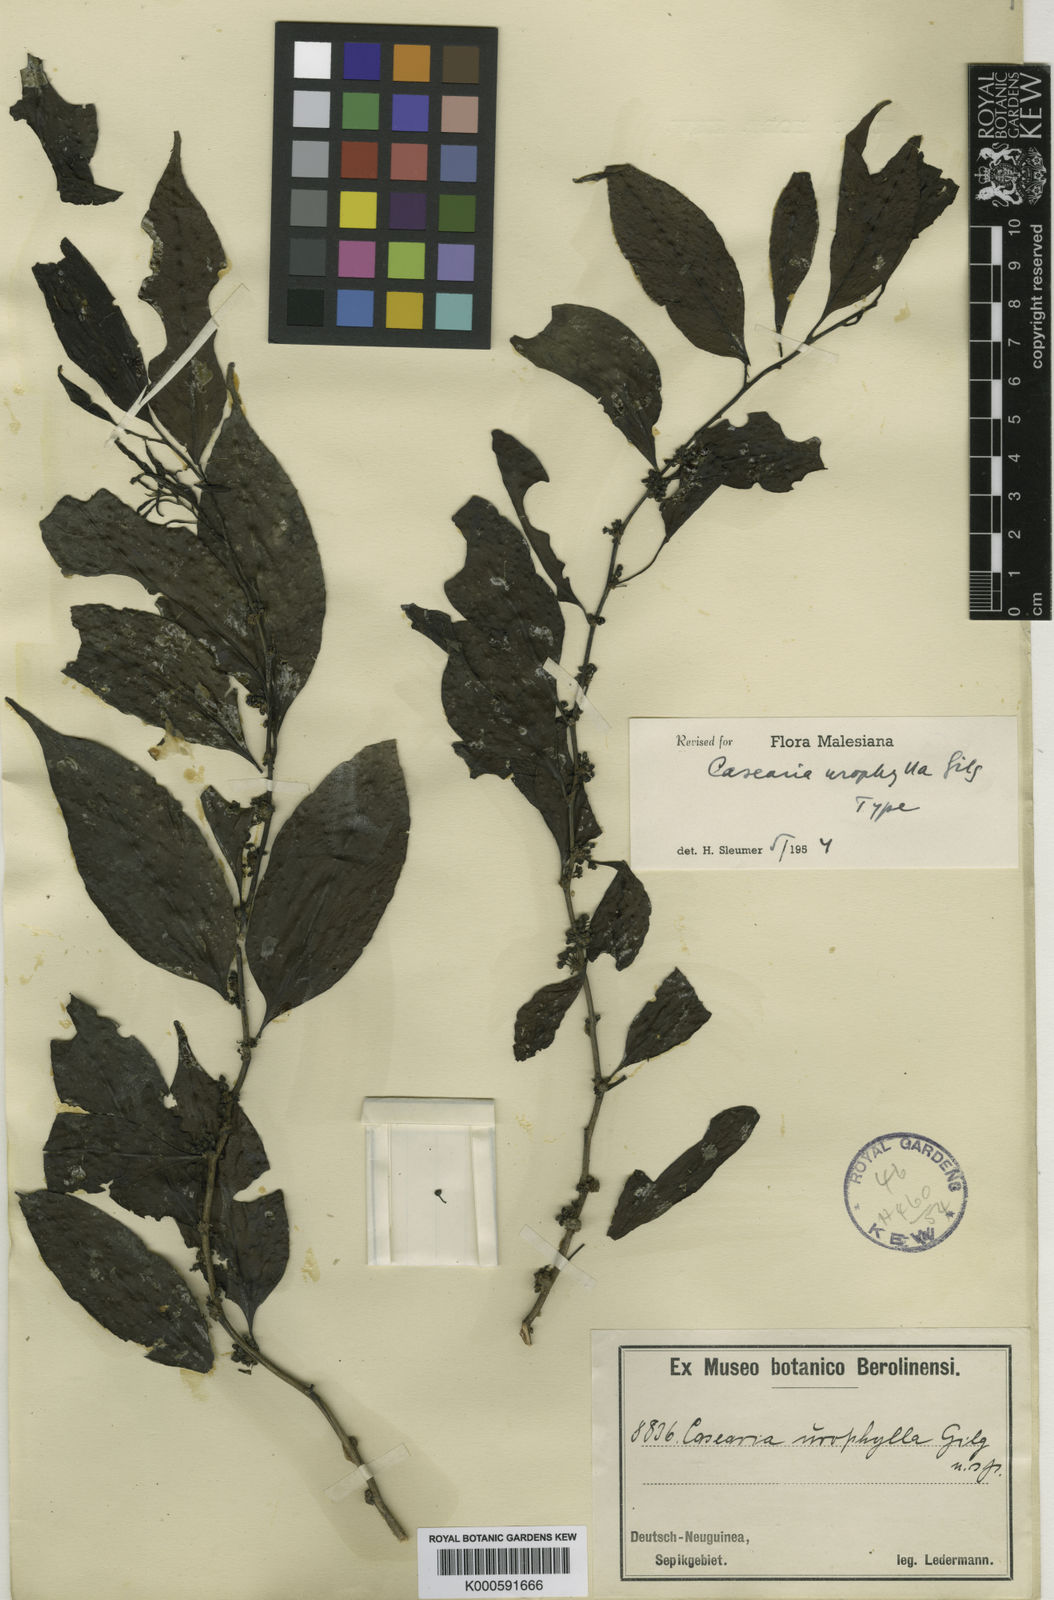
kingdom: Plantae
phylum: Tracheophyta
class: Magnoliopsida
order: Malpighiales
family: Salicaceae
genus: Casearia
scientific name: Casearia urophylla
